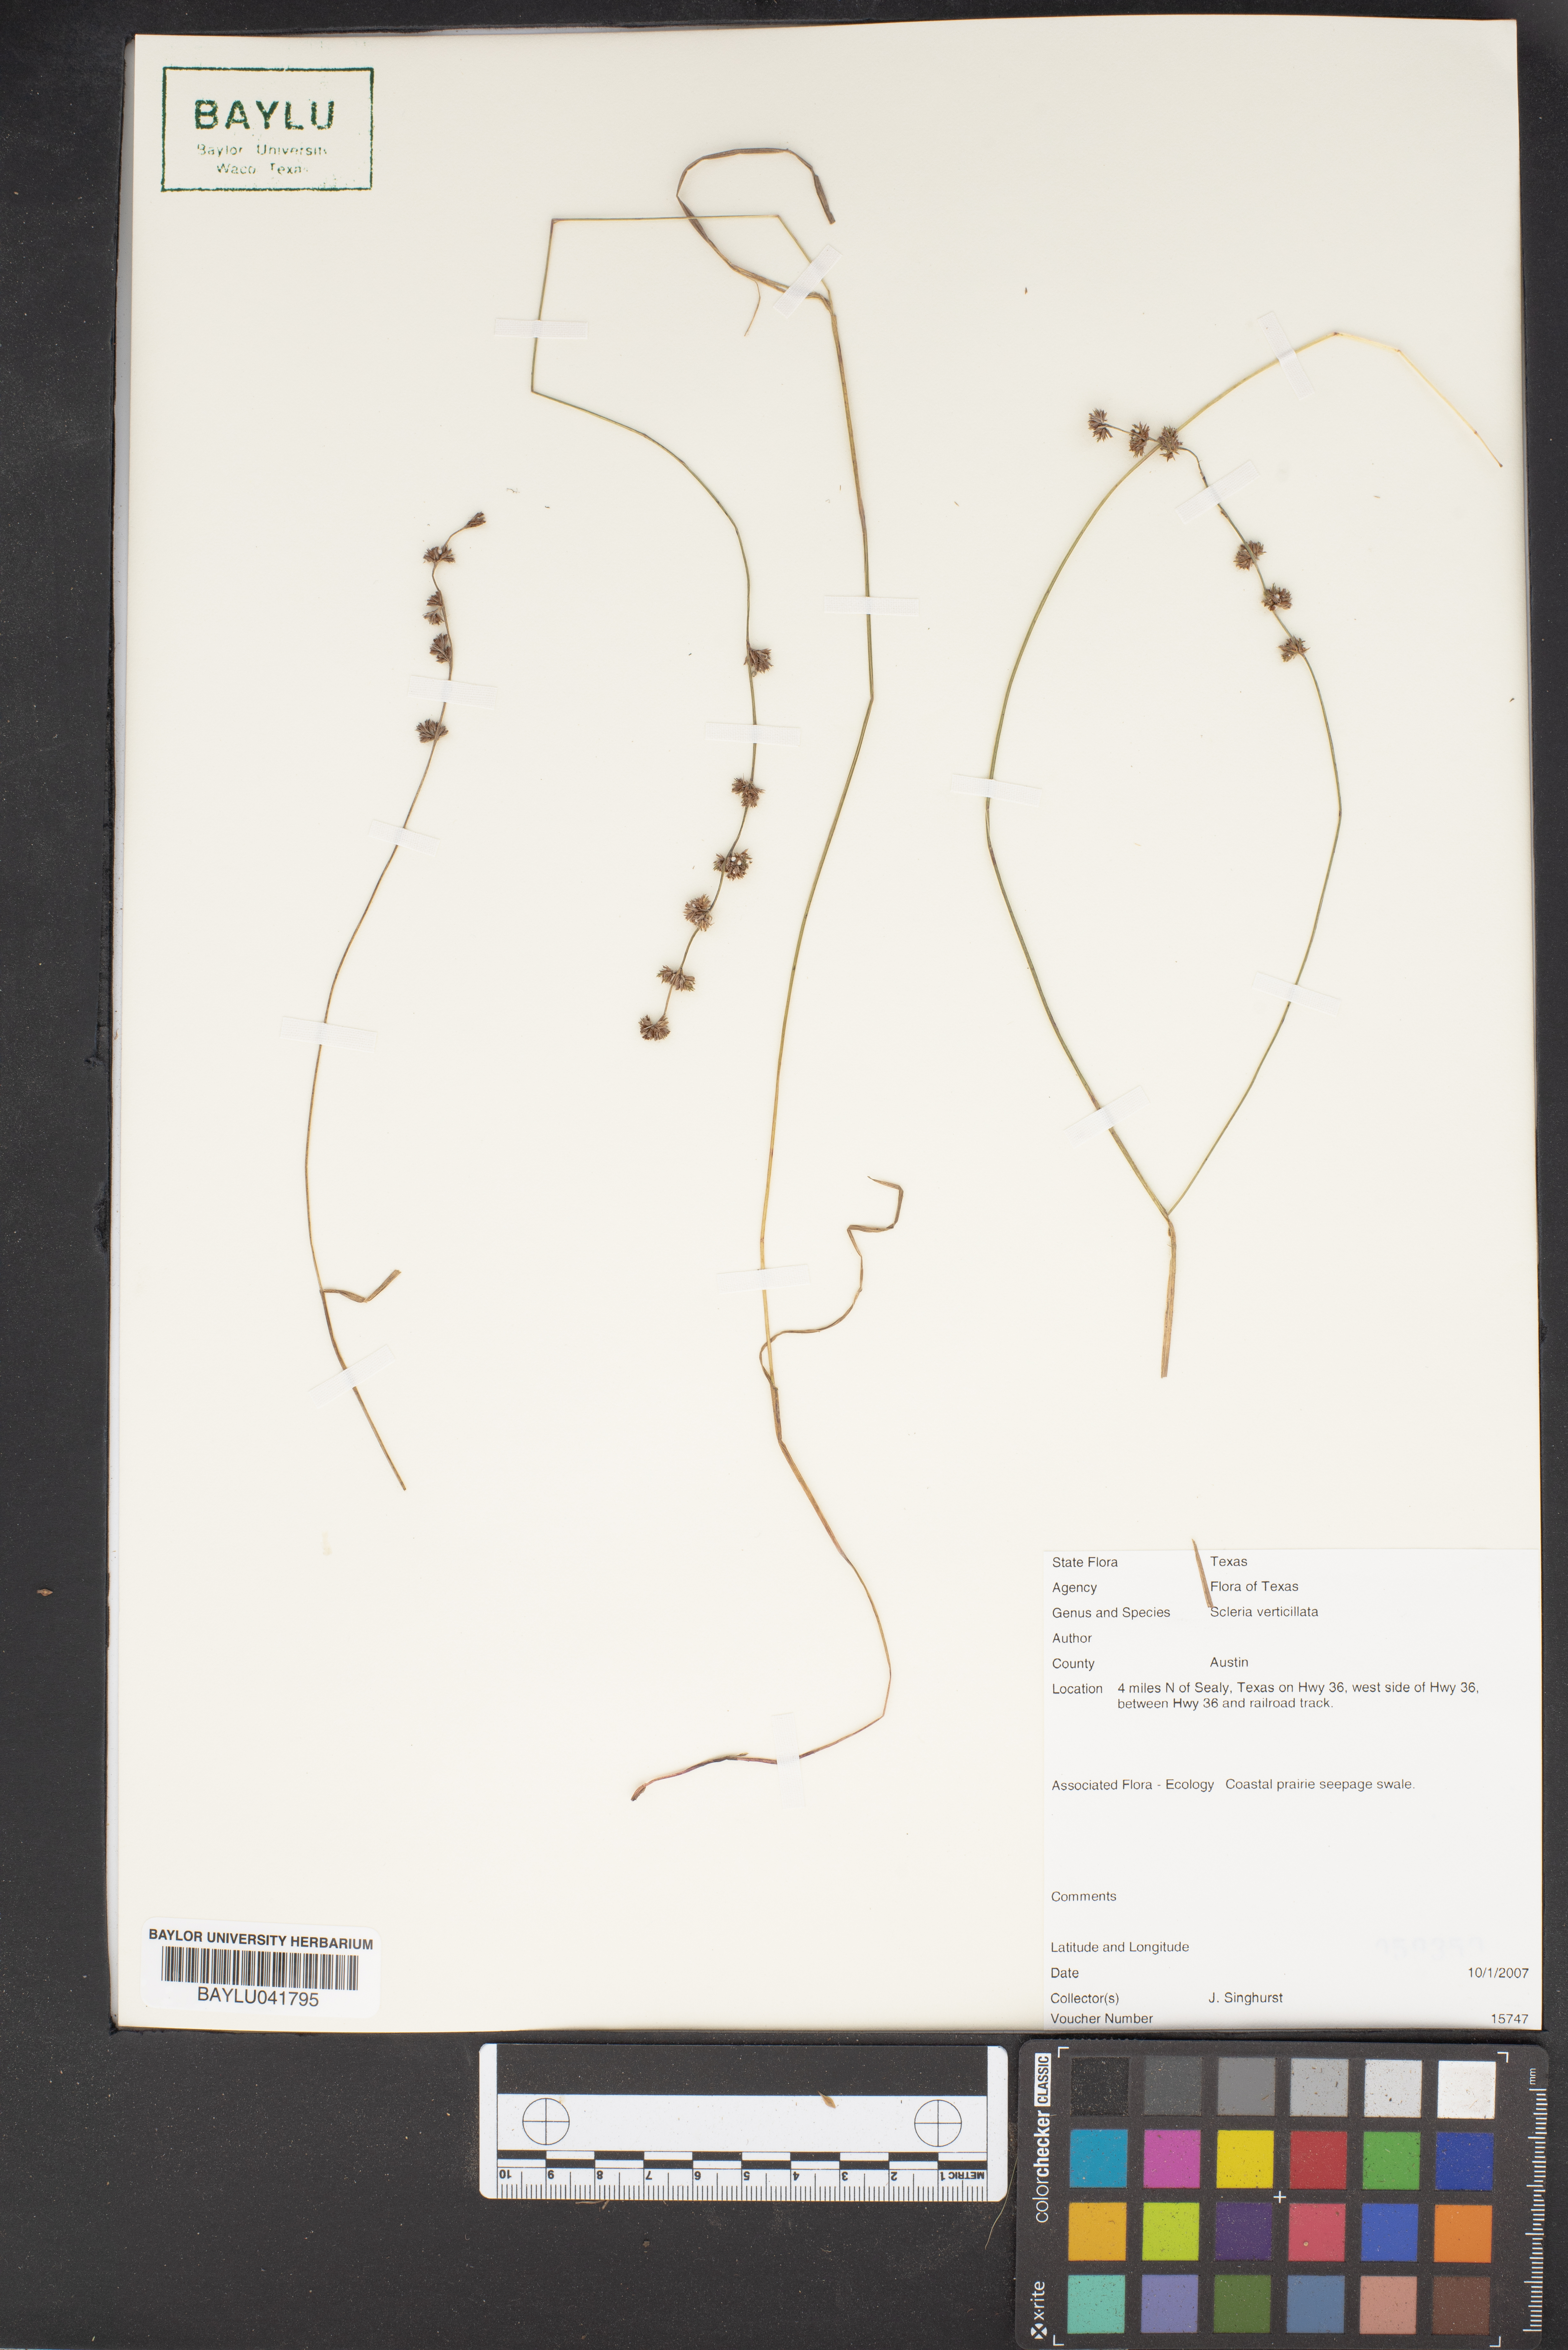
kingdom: Plantae
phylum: Tracheophyta
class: Liliopsida
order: Poales
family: Cyperaceae
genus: Scleria
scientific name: Scleria verticillata
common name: Low nutrush
